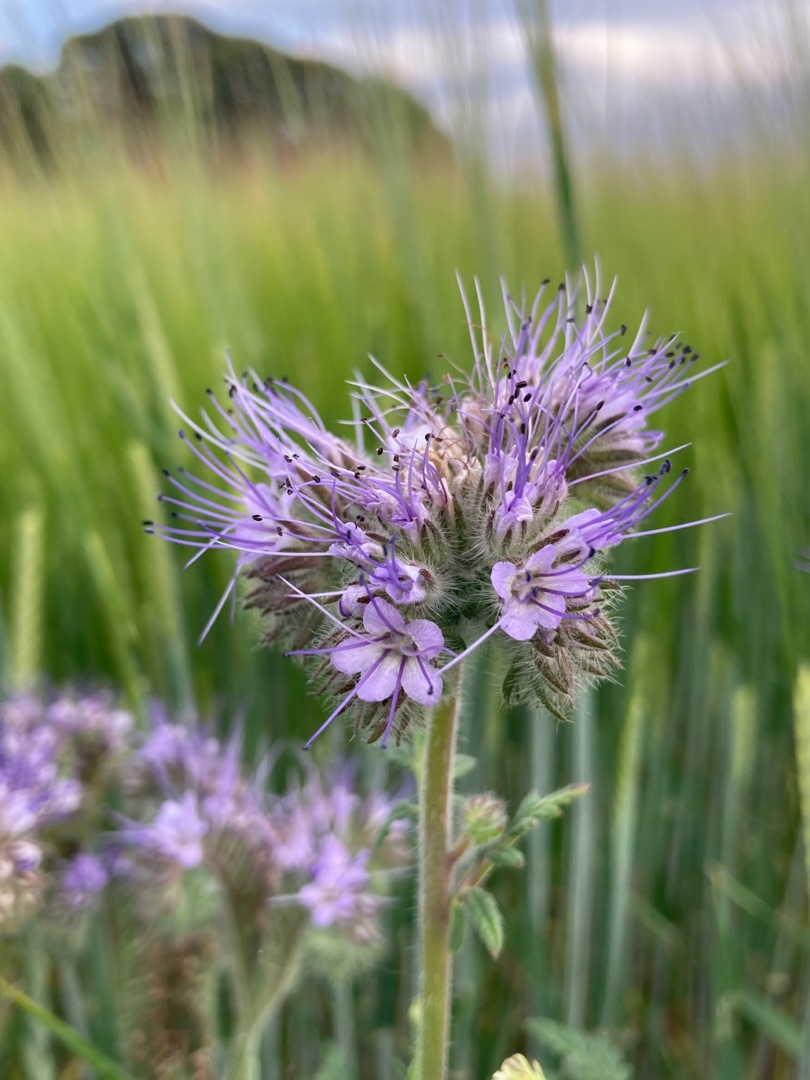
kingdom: Plantae
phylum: Tracheophyta
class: Magnoliopsida
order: Boraginales
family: Hydrophyllaceae
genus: Phacelia
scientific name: Phacelia tanacetifolia
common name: Honningurt
